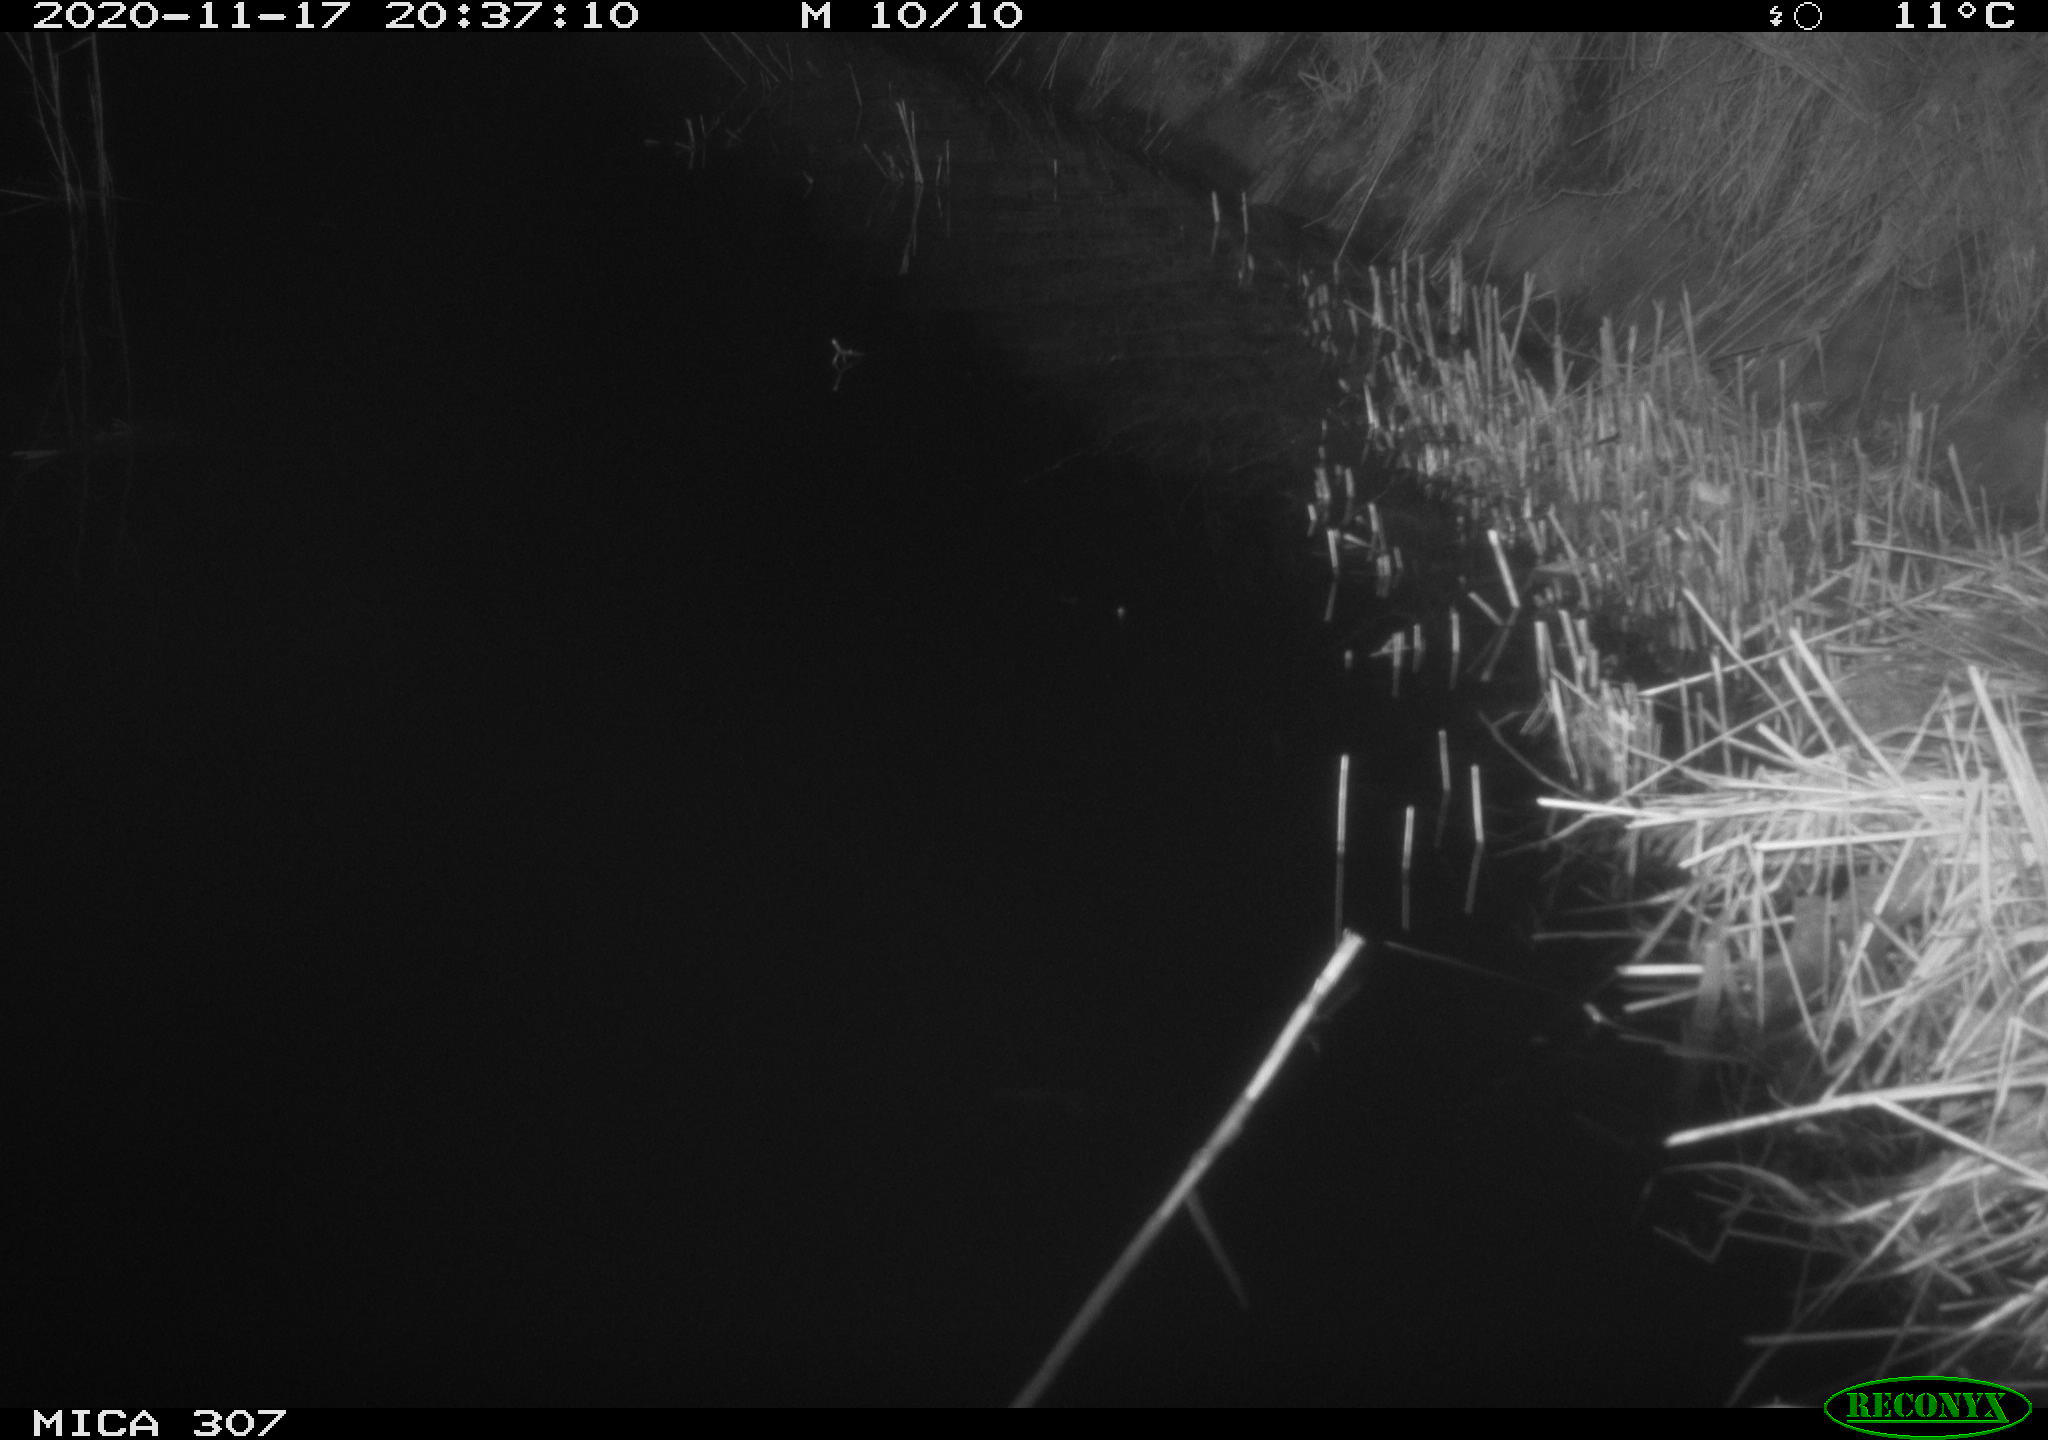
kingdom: Animalia
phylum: Chordata
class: Mammalia
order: Rodentia
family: Muridae
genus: Rattus
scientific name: Rattus norvegicus
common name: Brown rat
